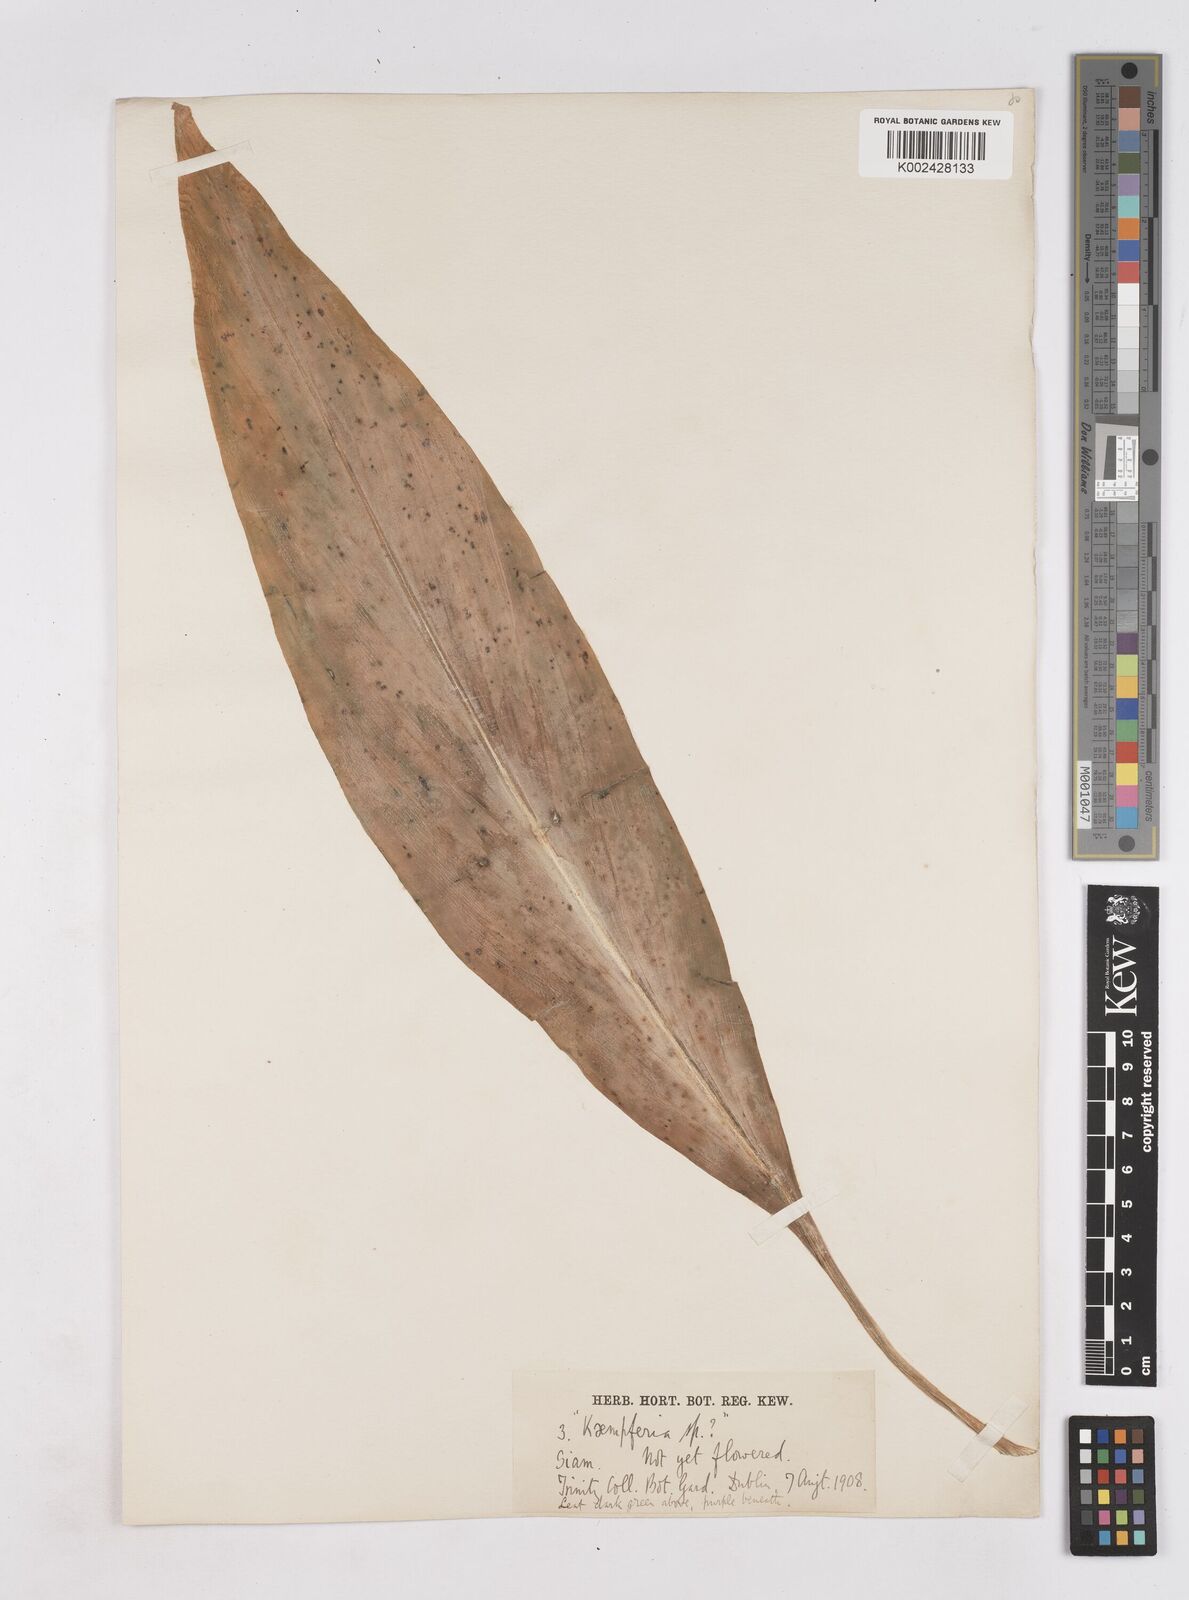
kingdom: Plantae
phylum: Tracheophyta
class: Liliopsida
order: Zingiberales
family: Zingiberaceae
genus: Kaempferia
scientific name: Kaempferia rotunda
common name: Tropical-crocus
